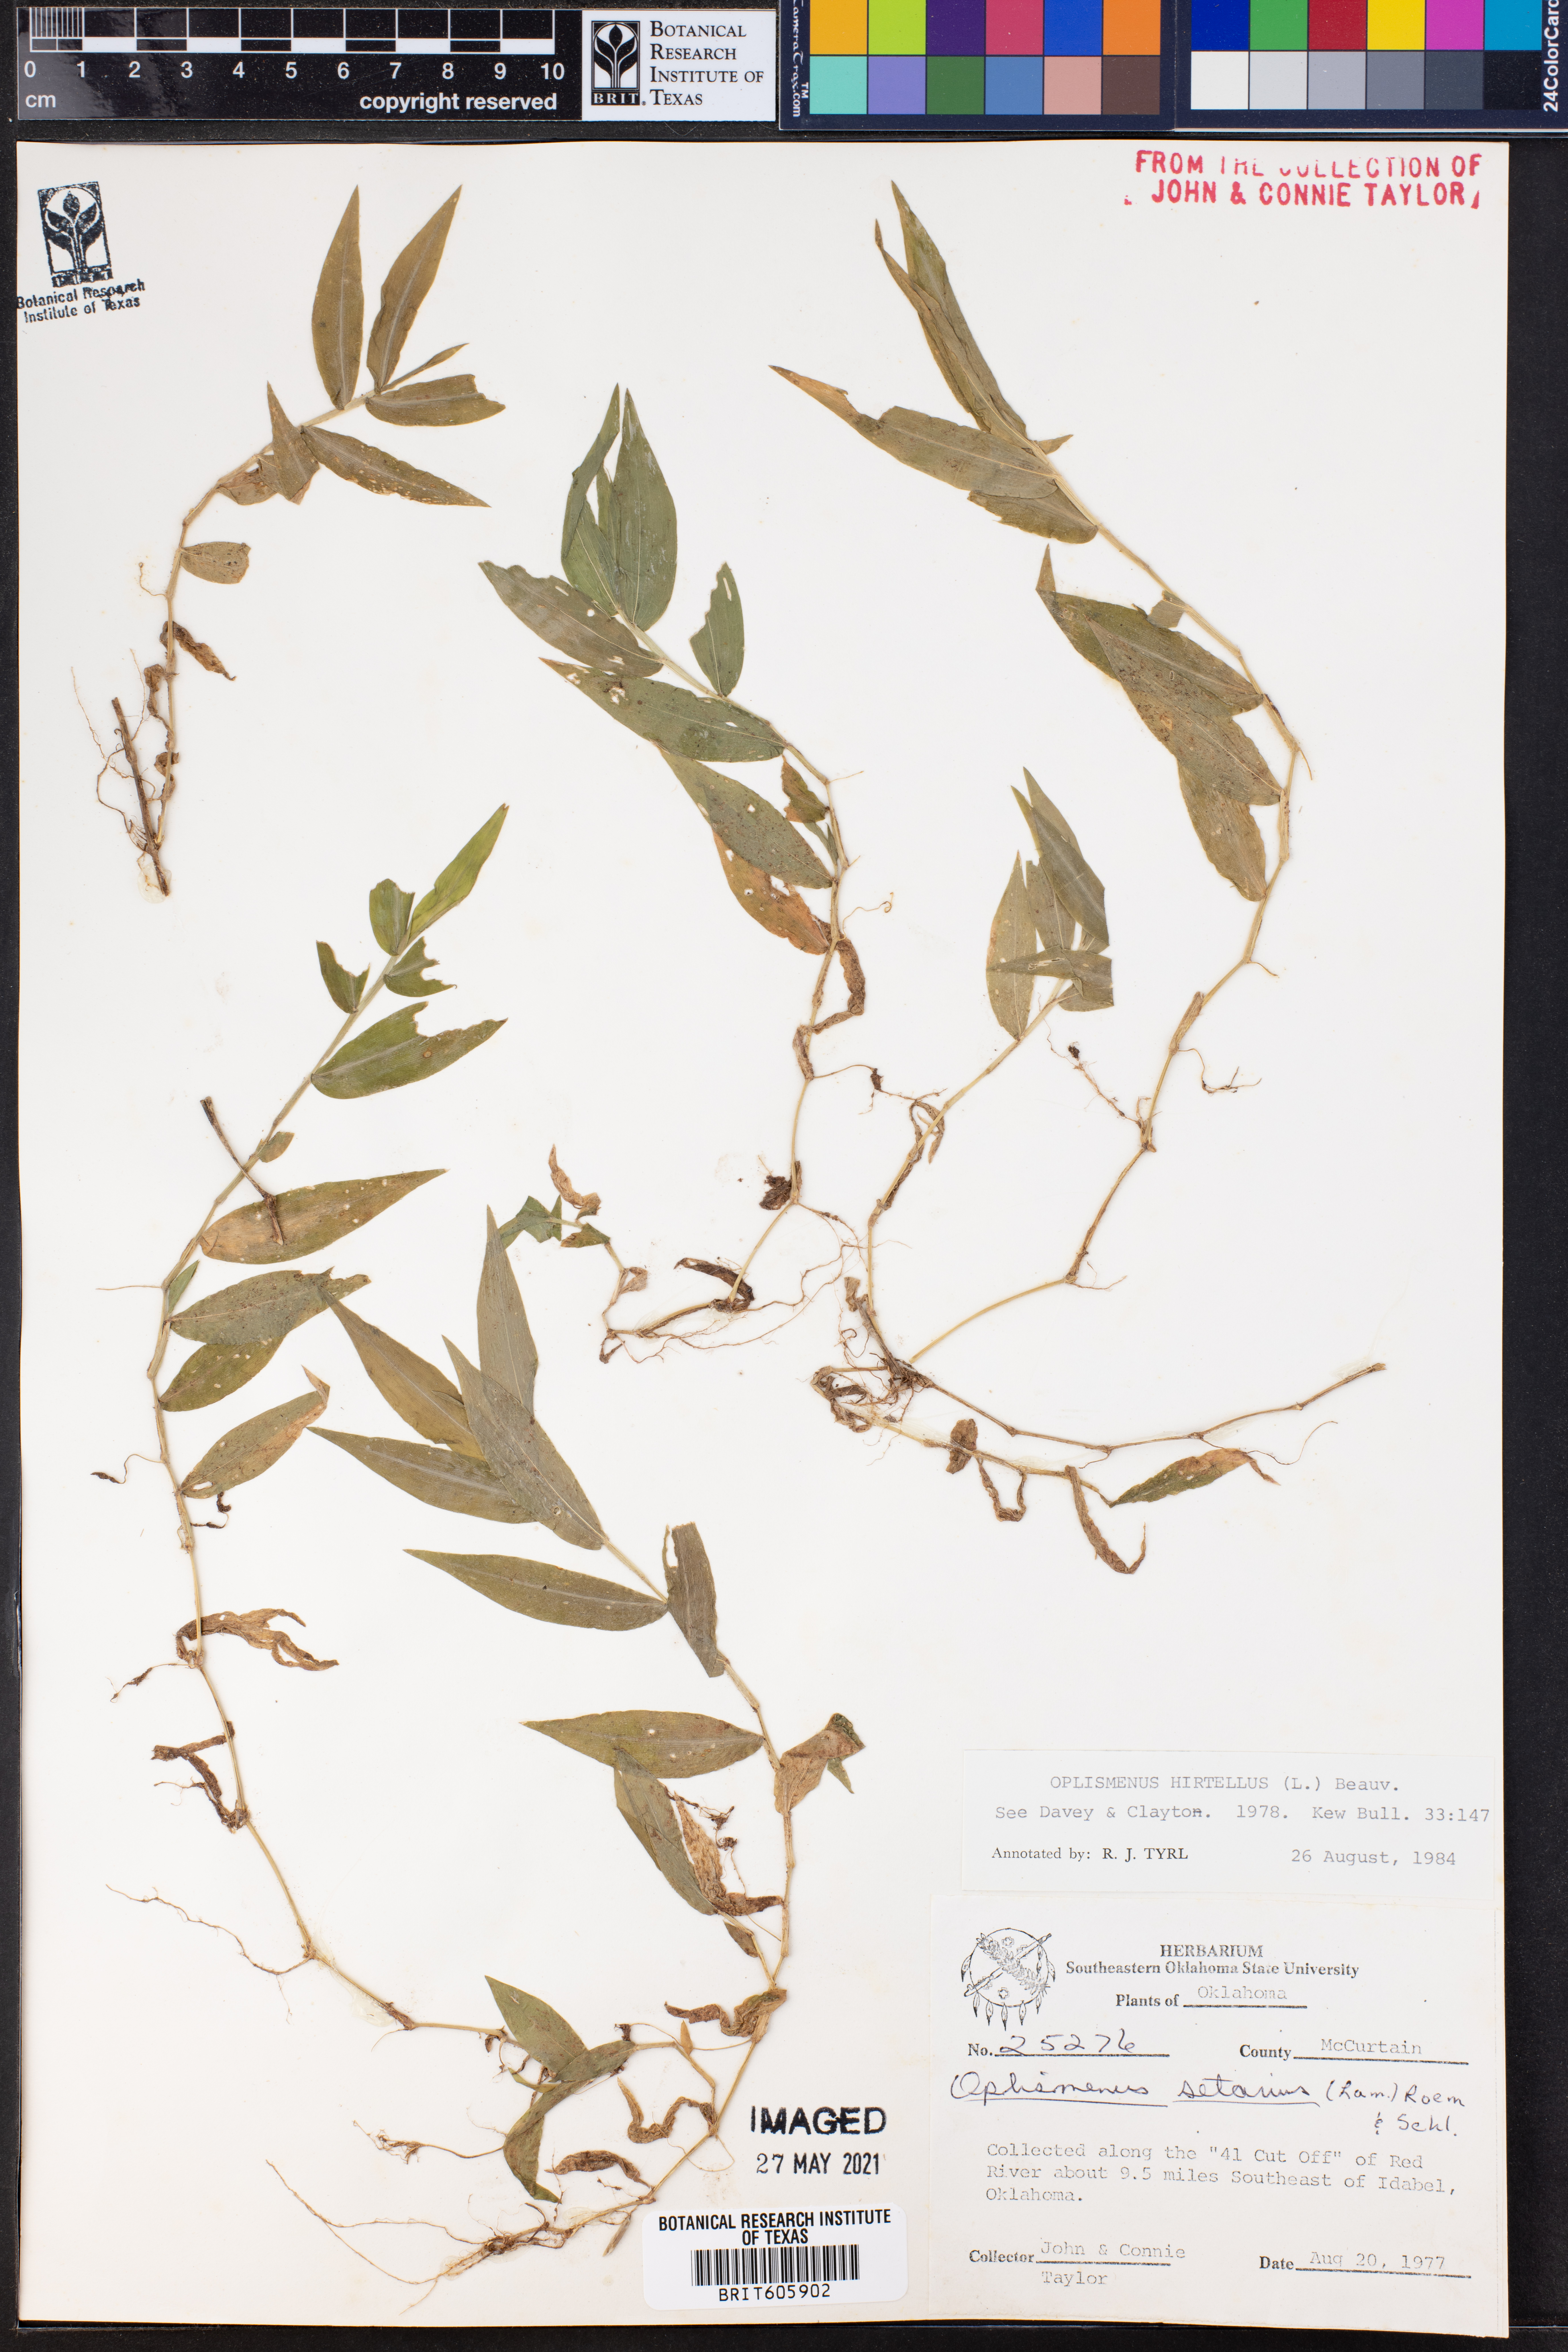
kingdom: Plantae
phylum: Tracheophyta
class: Liliopsida
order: Poales
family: Poaceae
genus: Oplismenus
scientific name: Oplismenus hirtellus
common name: Basketgrass
